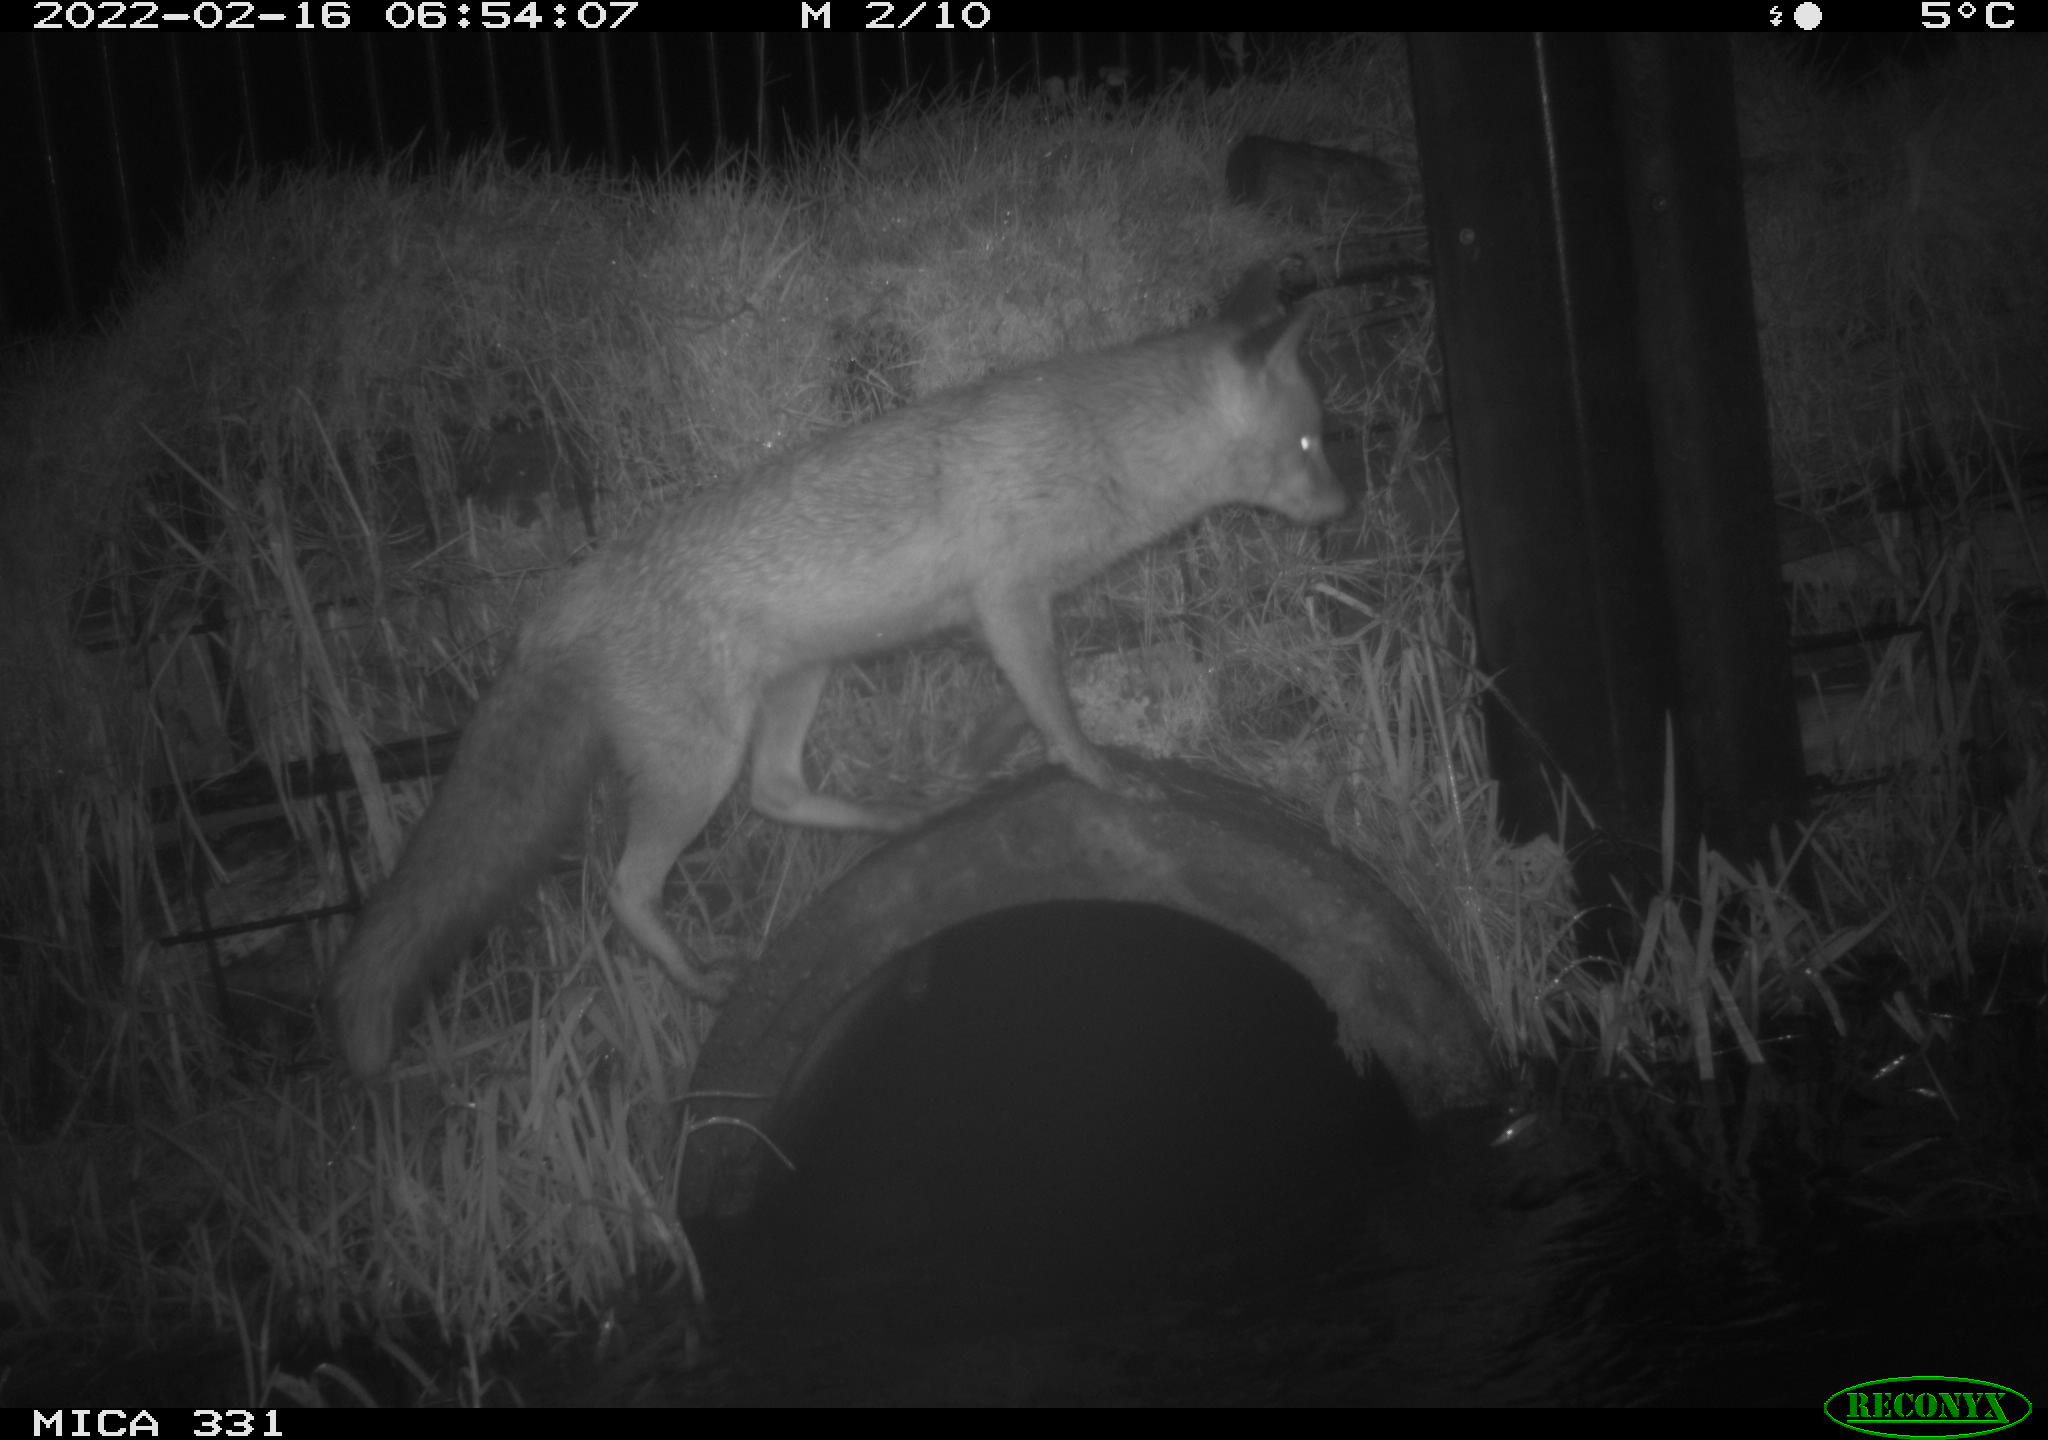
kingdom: Animalia
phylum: Chordata
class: Mammalia
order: Carnivora
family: Canidae
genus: Vulpes
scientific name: Vulpes vulpes
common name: Red fox
